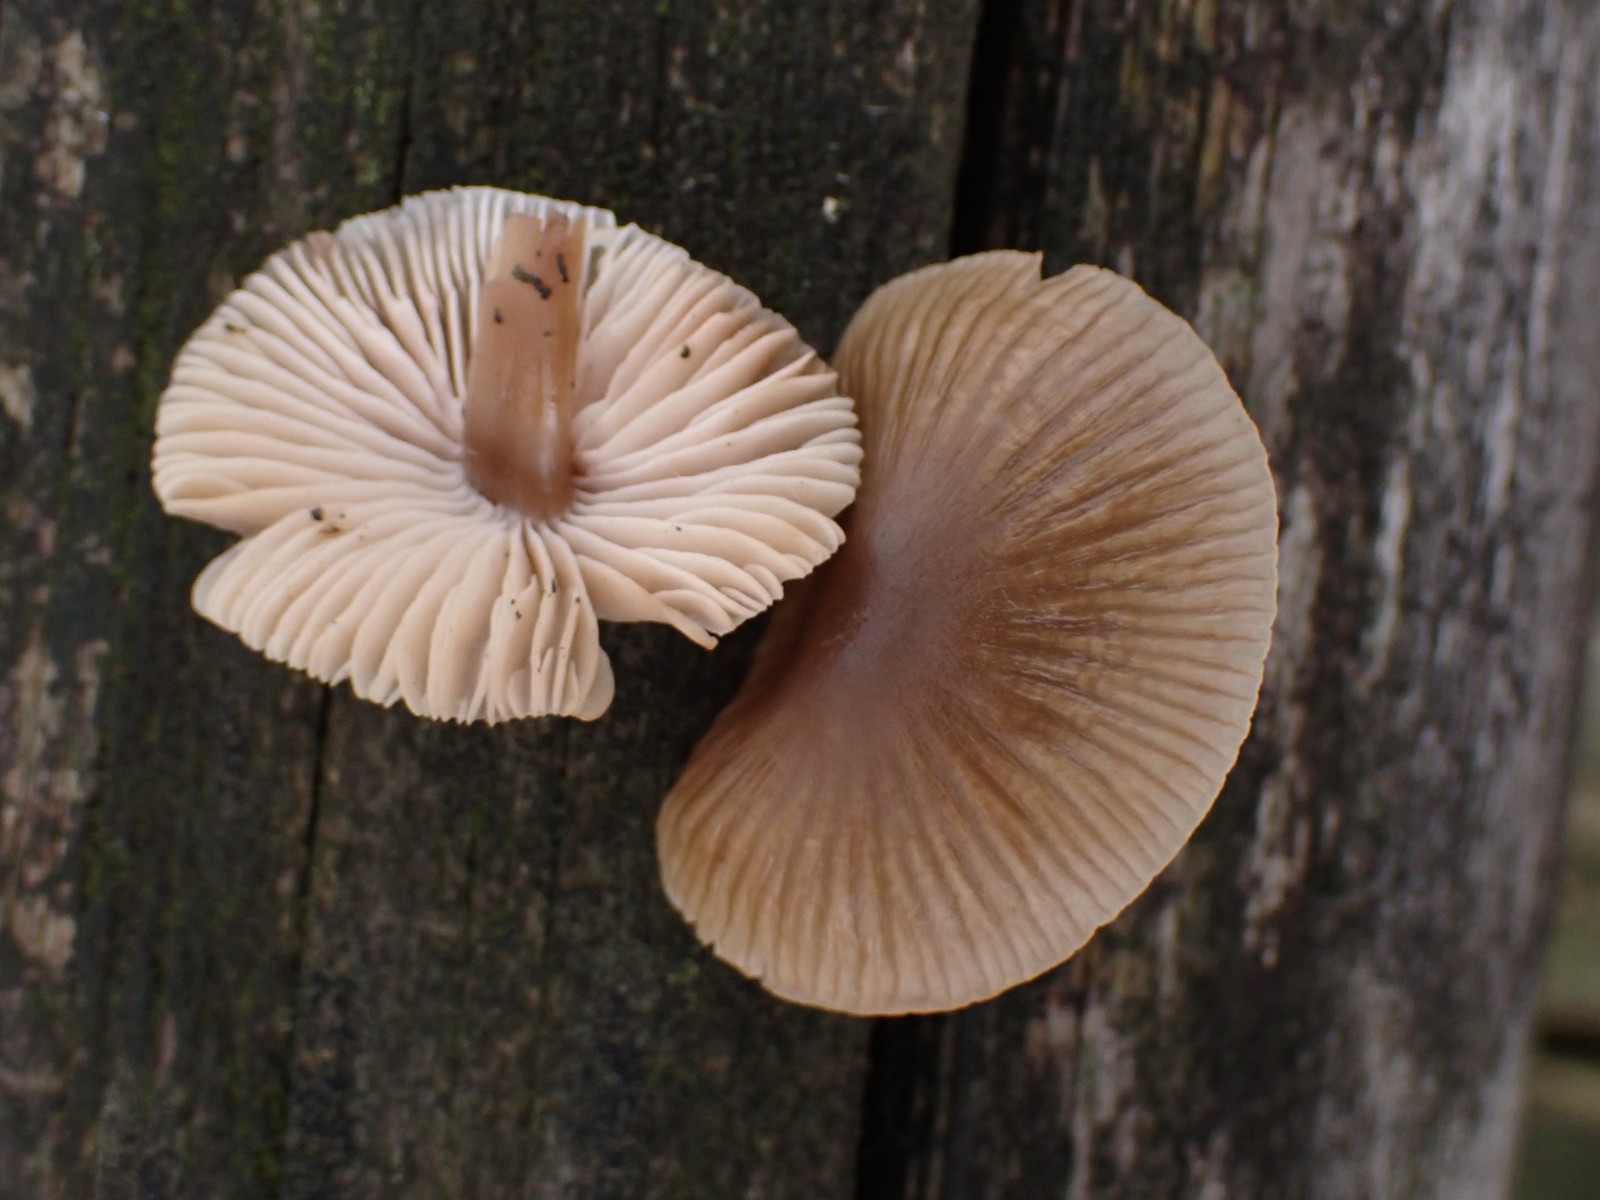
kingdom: Fungi
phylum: Basidiomycota
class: Agaricomycetes
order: Agaricales
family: Mycenaceae
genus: Mycena
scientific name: Mycena galericulata
